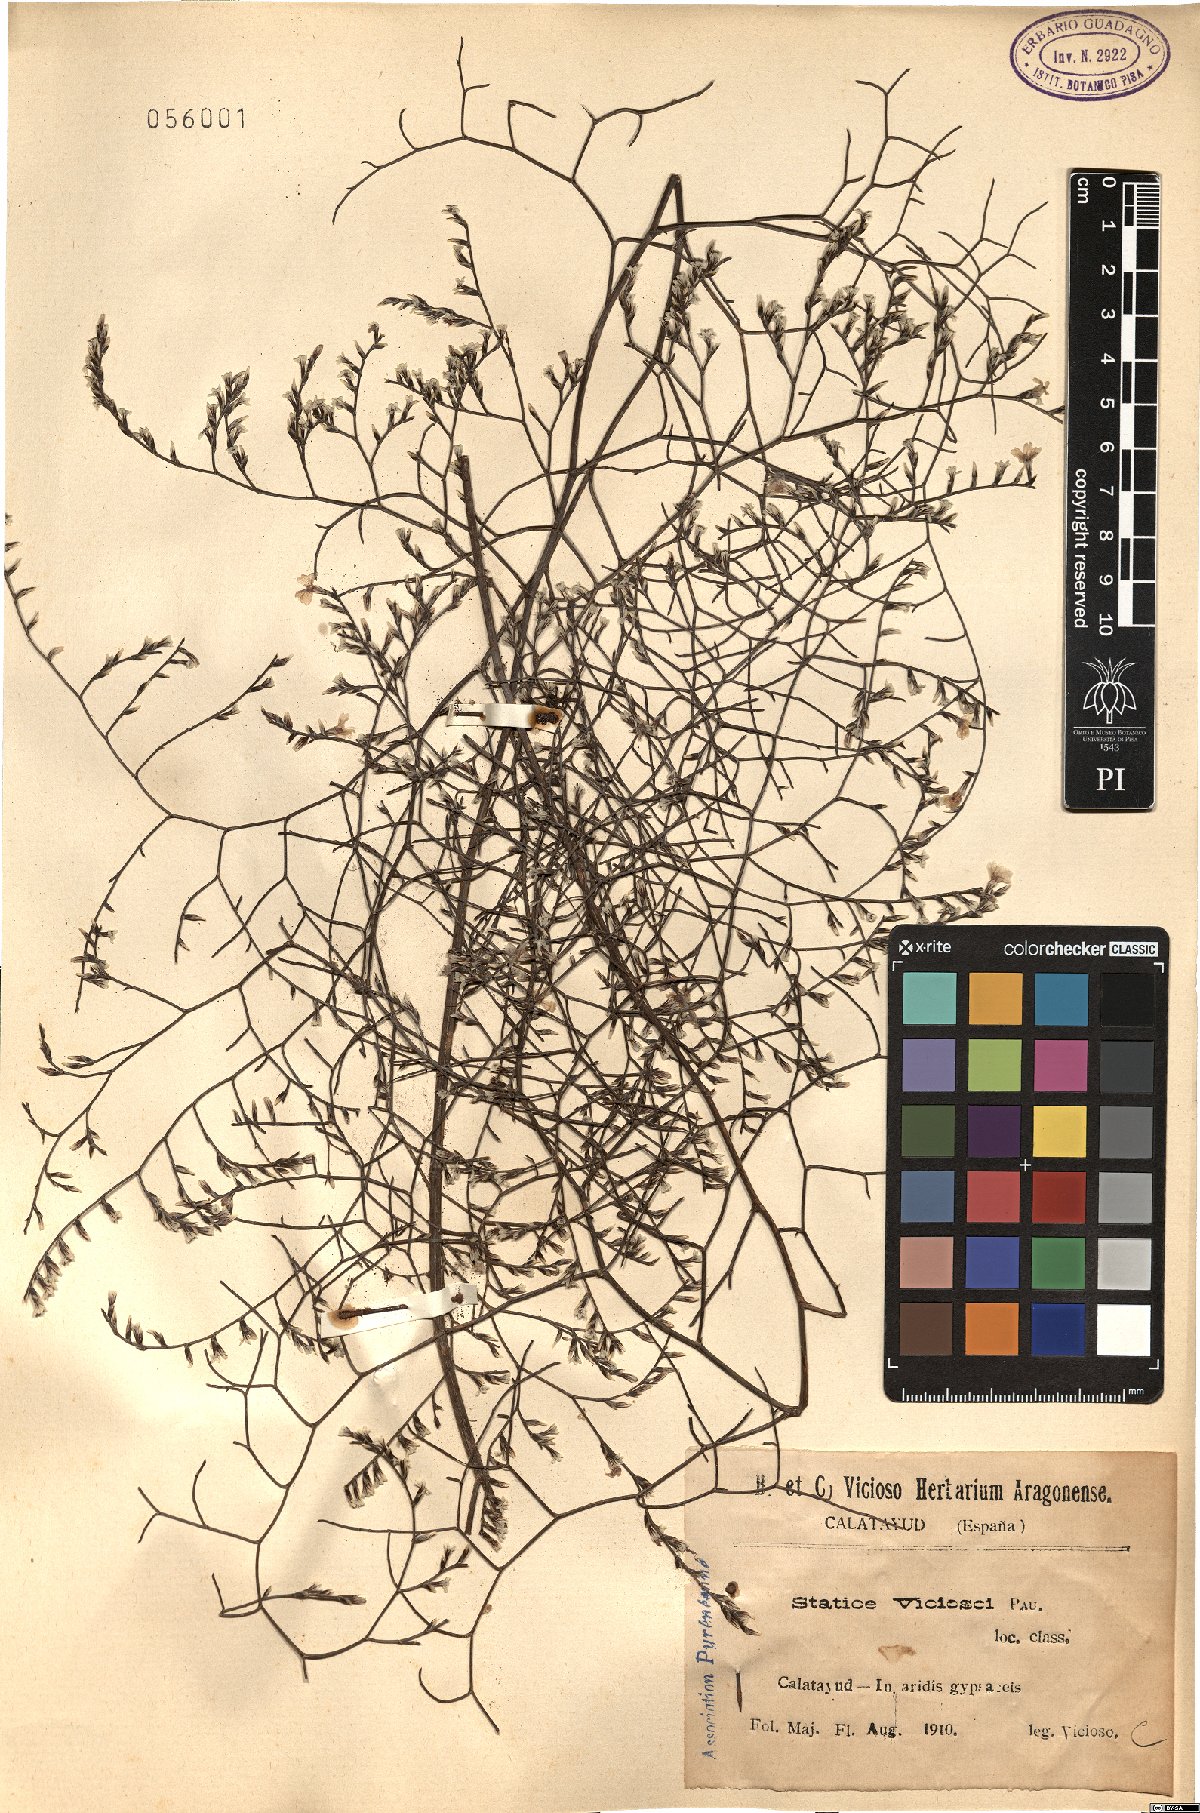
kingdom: Plantae
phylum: Tracheophyta
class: Magnoliopsida
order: Caryophyllales
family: Plumbaginaceae
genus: Limonium
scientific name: Limonium viciosoi
